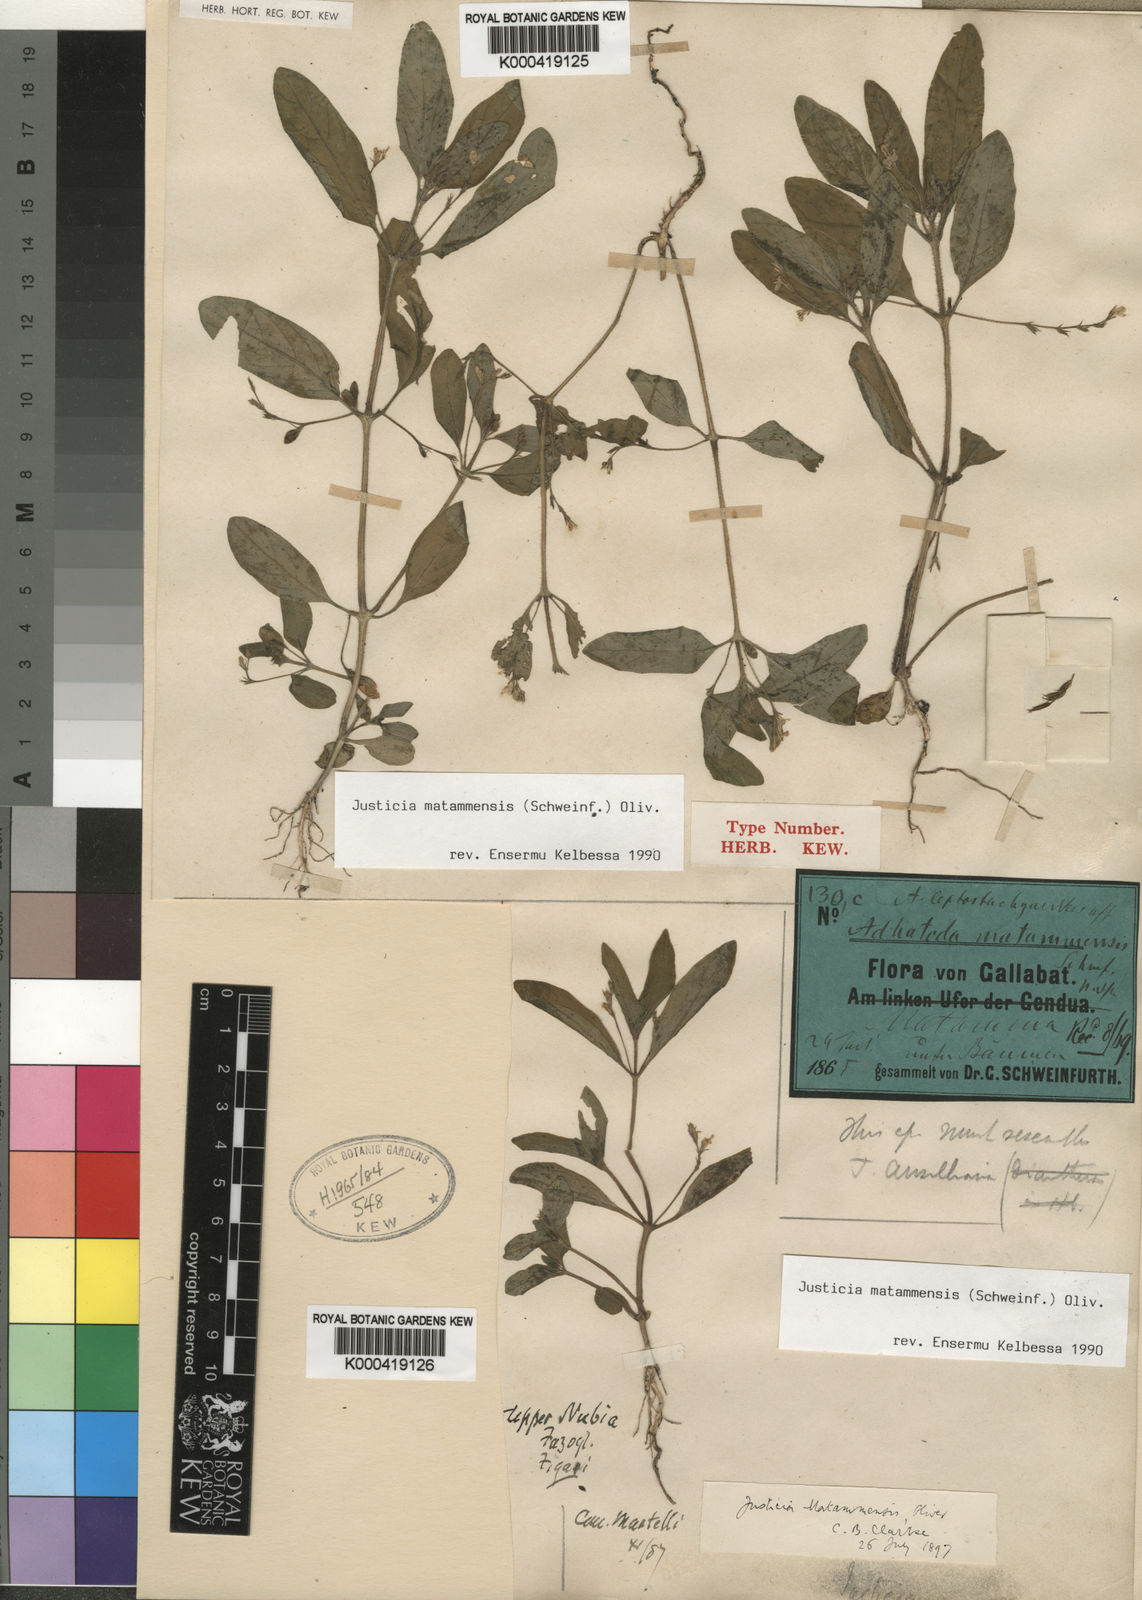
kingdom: Plantae
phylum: Tracheophyta
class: Magnoliopsida
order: Lamiales
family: Acanthaceae
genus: Justicia
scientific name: Justicia matammensis
